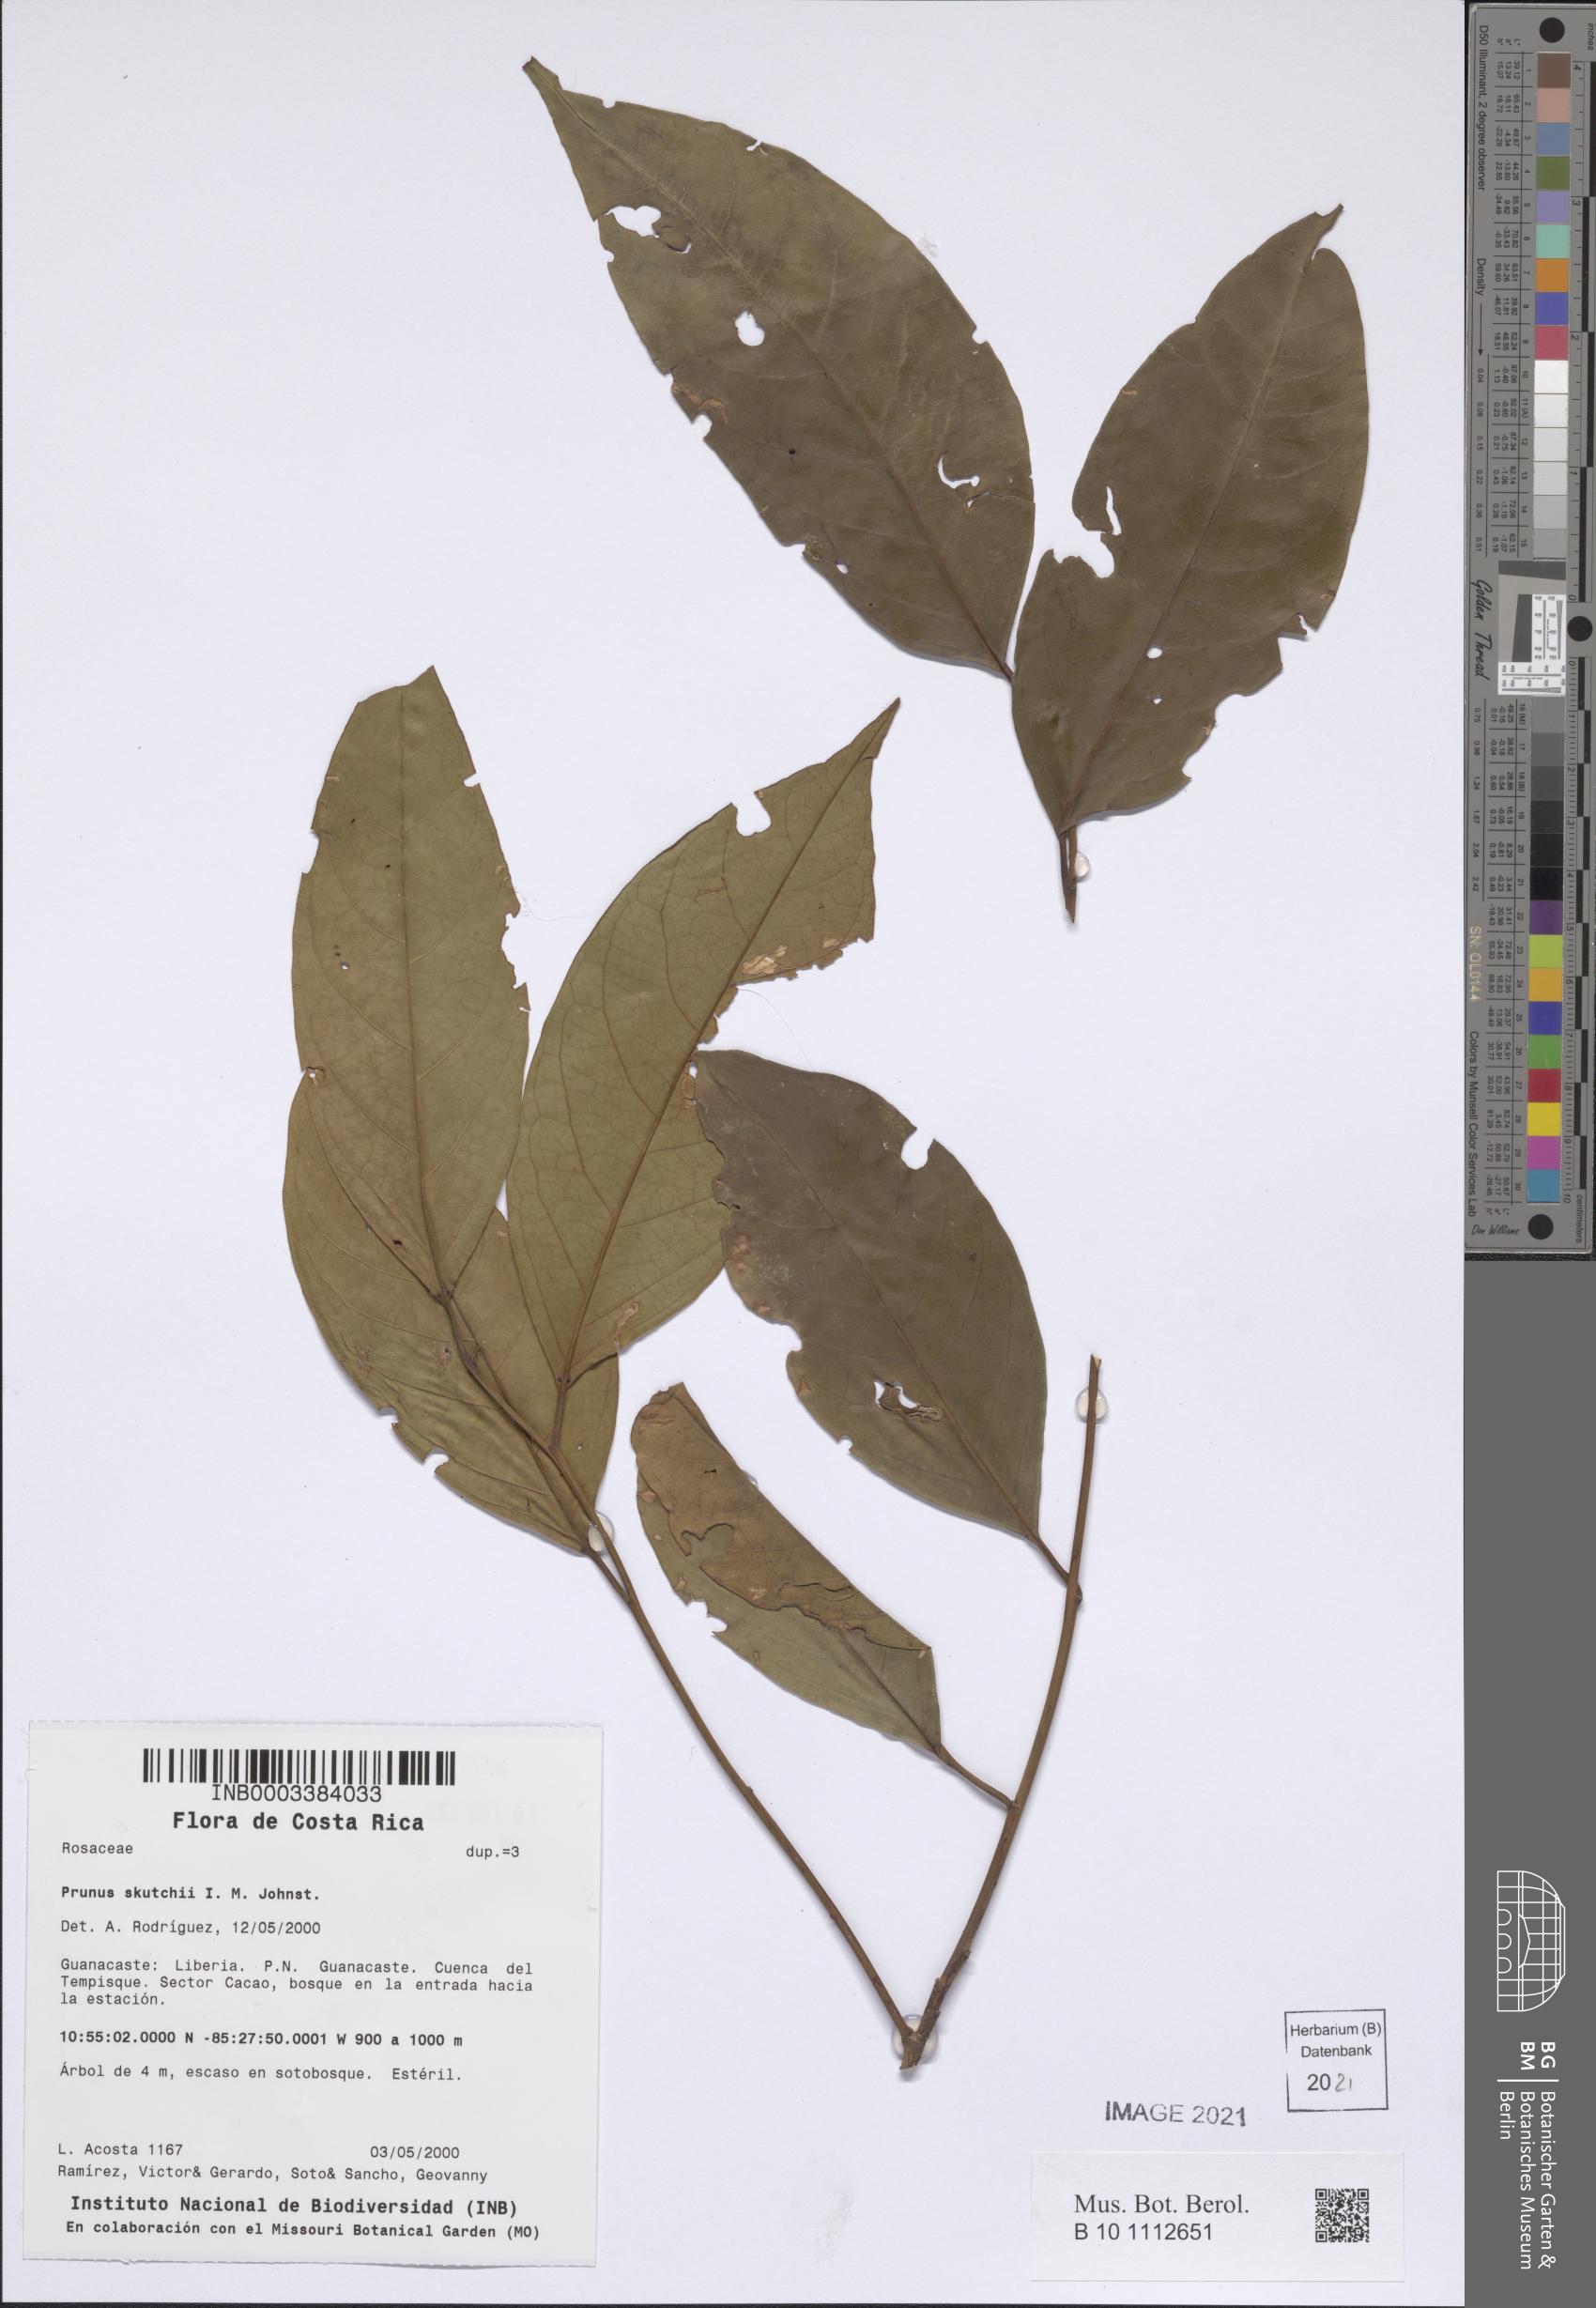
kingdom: Plantae
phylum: Tracheophyta
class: Magnoliopsida
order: Rosales
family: Rosaceae
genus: Prunus
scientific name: Prunus occidentalis
